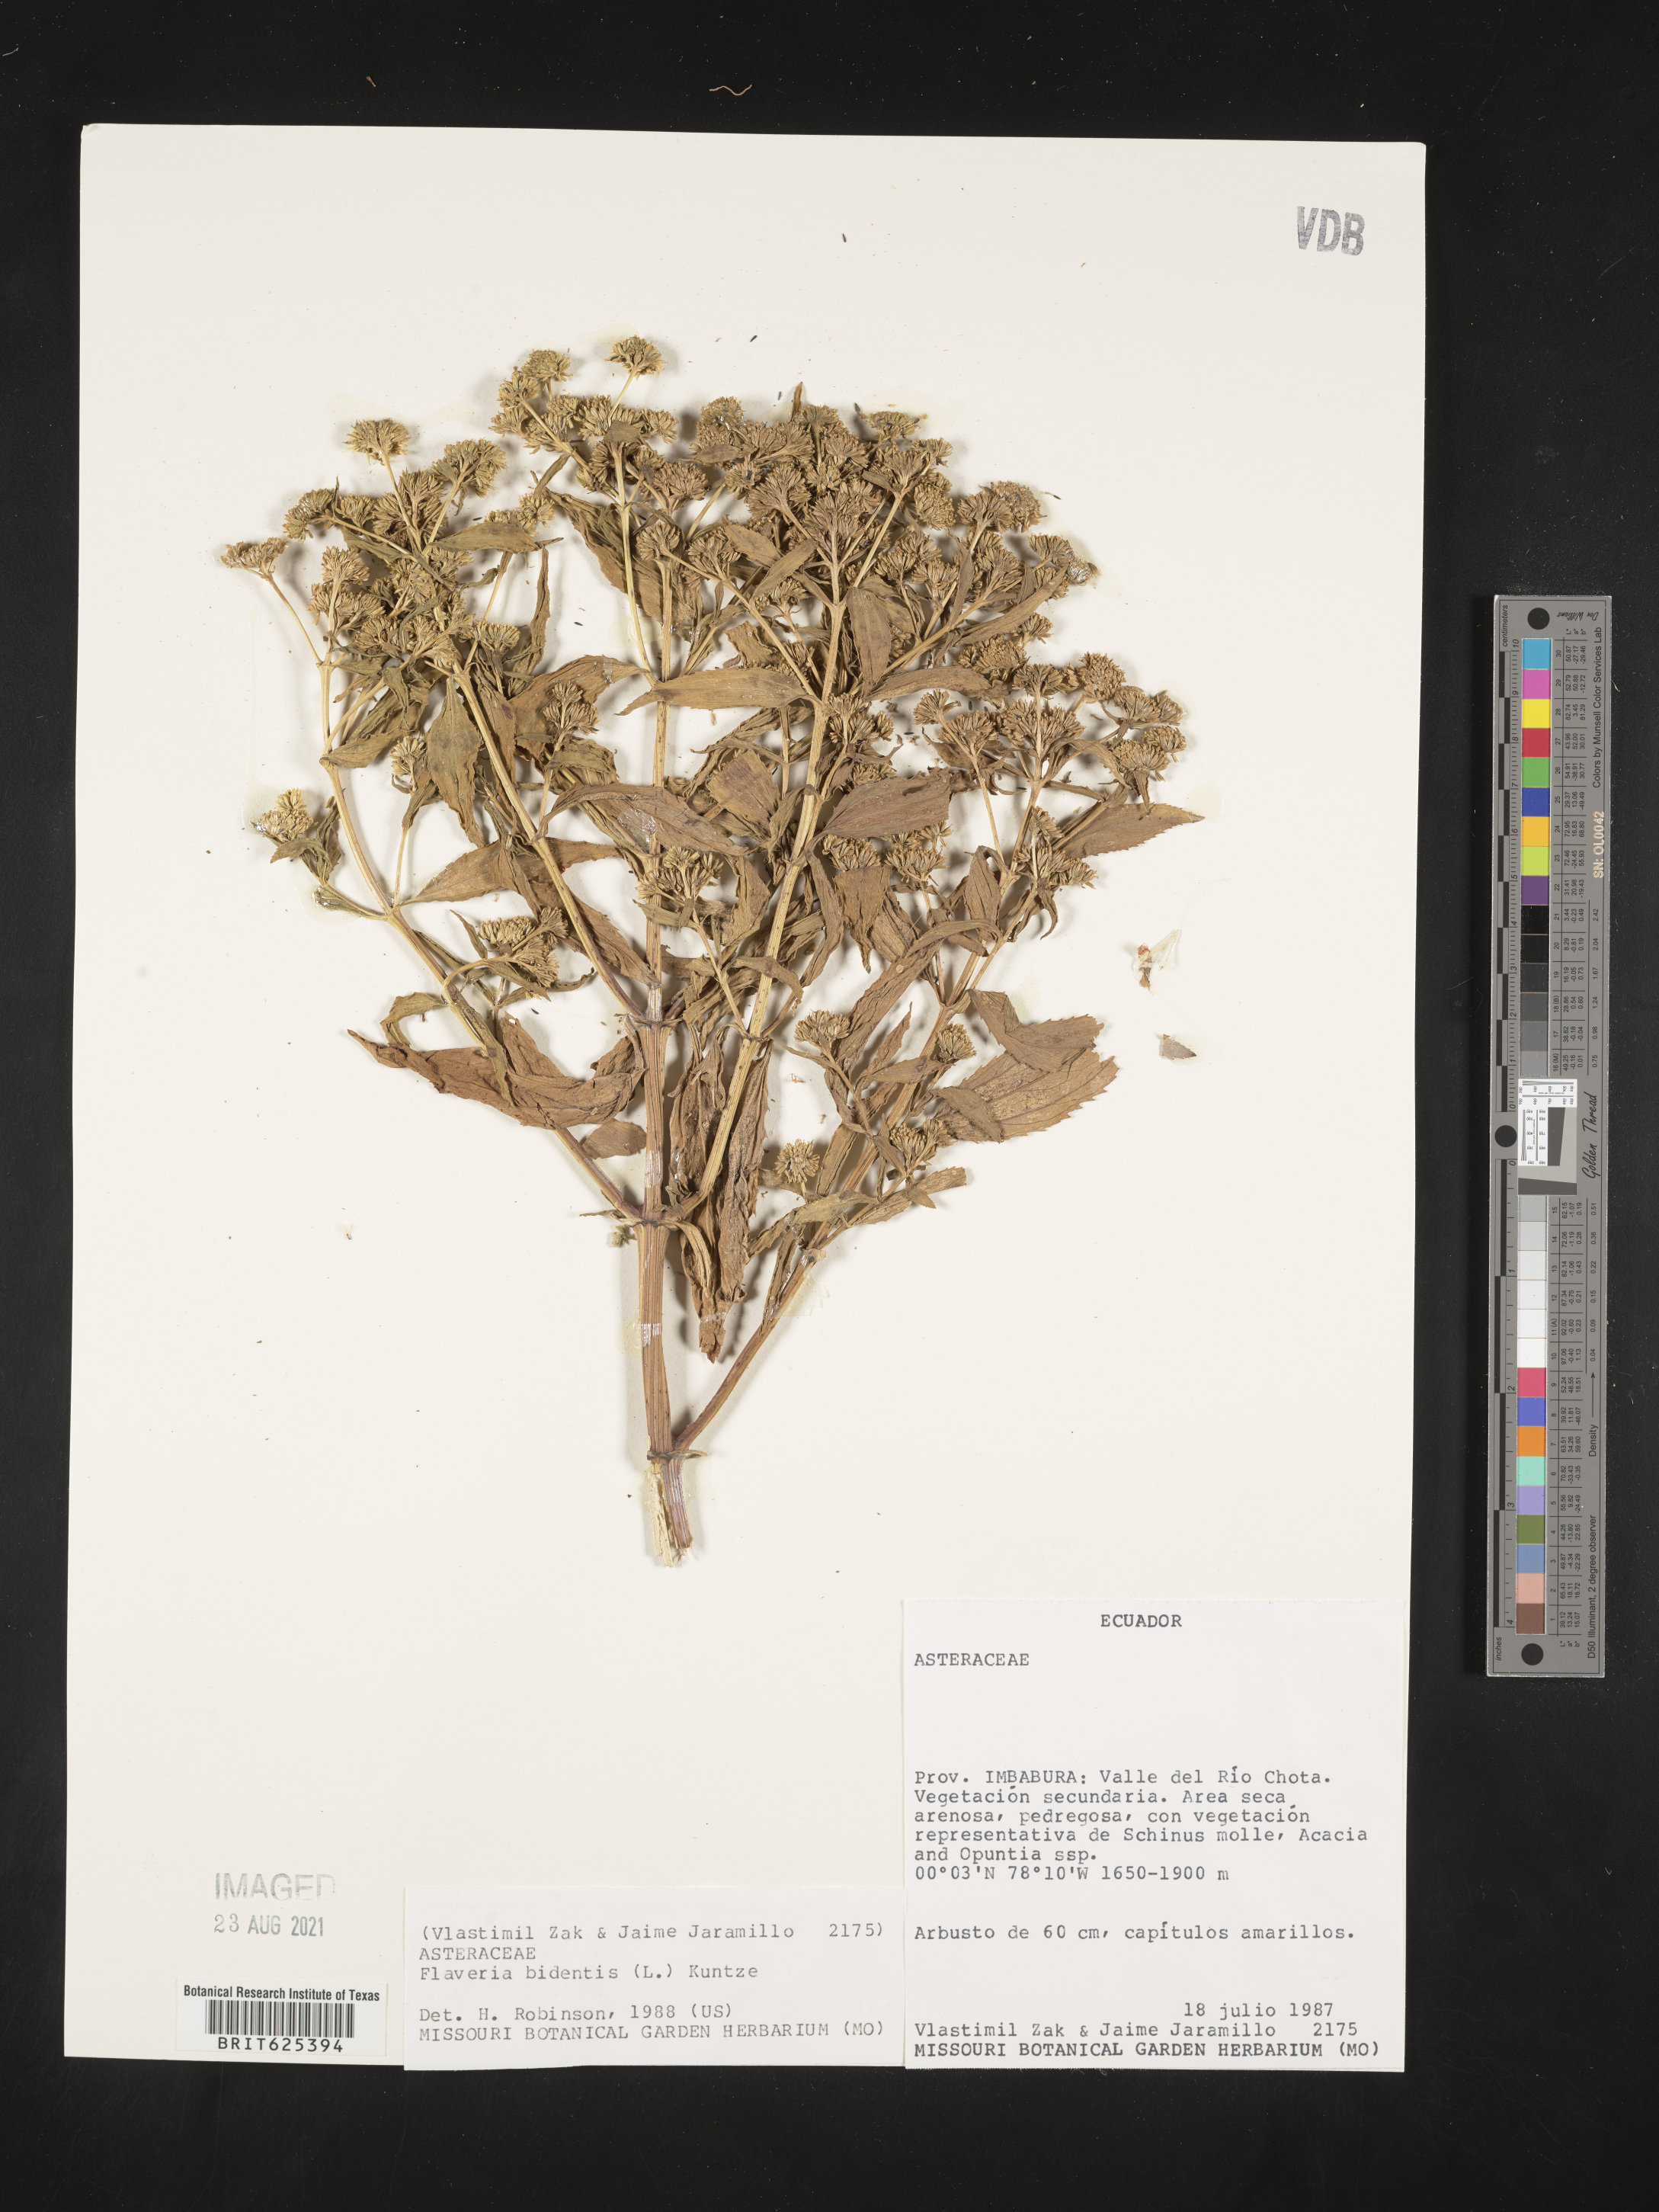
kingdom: Plantae
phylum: Tracheophyta
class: Magnoliopsida
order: Asterales
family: Asteraceae
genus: Flaveria
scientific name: Flaveria bidentis
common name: Coastal plain yellowtops
